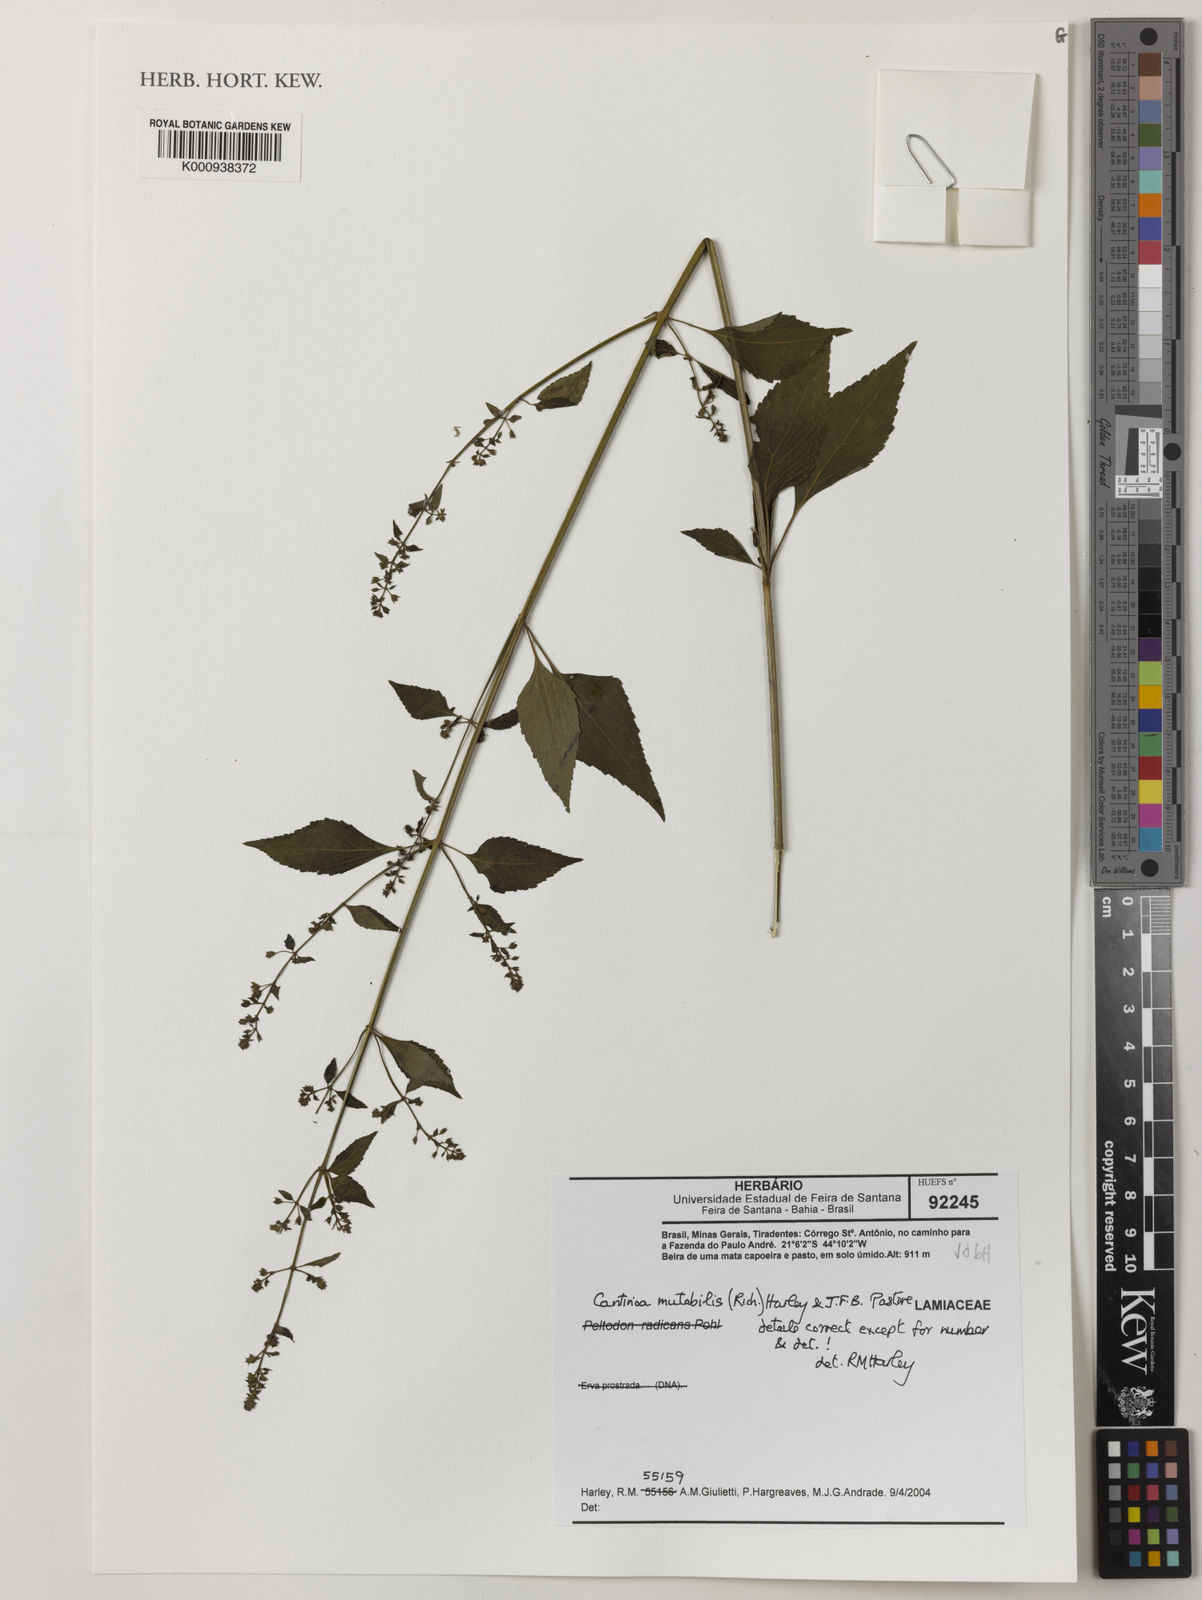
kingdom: Plantae
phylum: Tracheophyta
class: Magnoliopsida
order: Lamiales
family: Lamiaceae
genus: Cantinoa
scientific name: Cantinoa mutabilis
